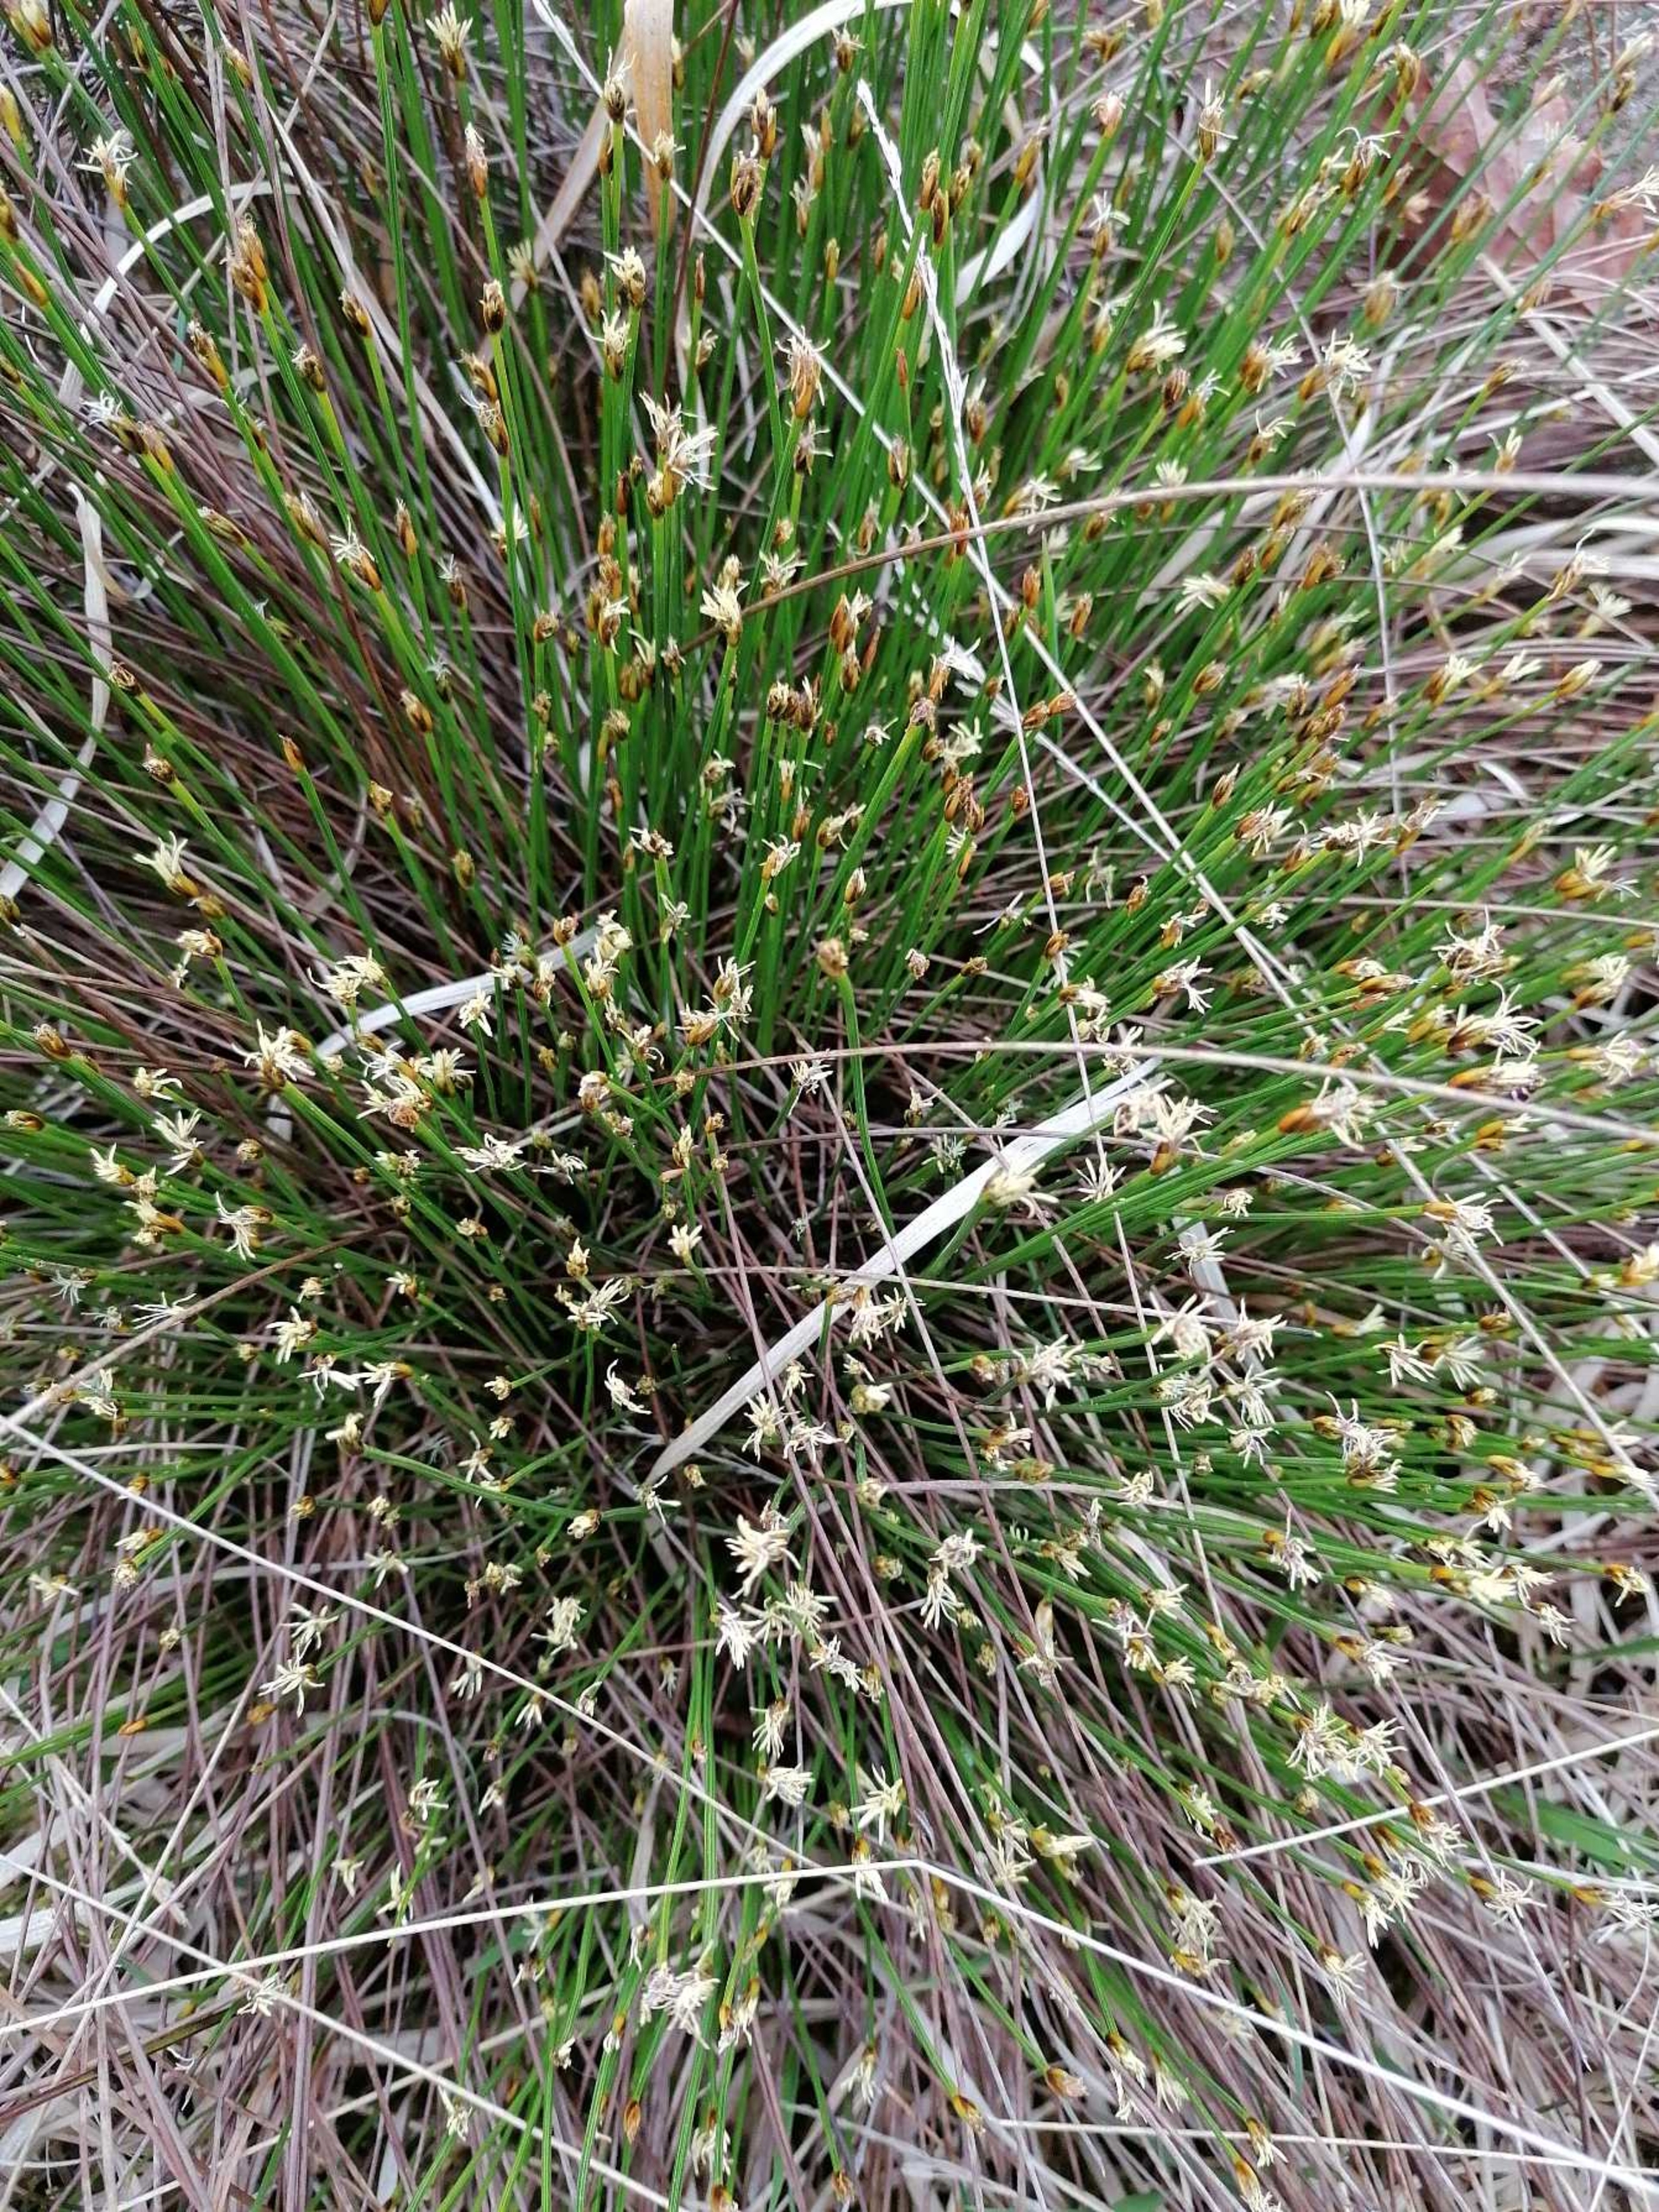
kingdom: Plantae
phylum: Tracheophyta
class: Liliopsida
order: Poales
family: Cyperaceae
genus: Trichophorum
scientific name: Trichophorum cespitosum
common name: Tuekogleaks
